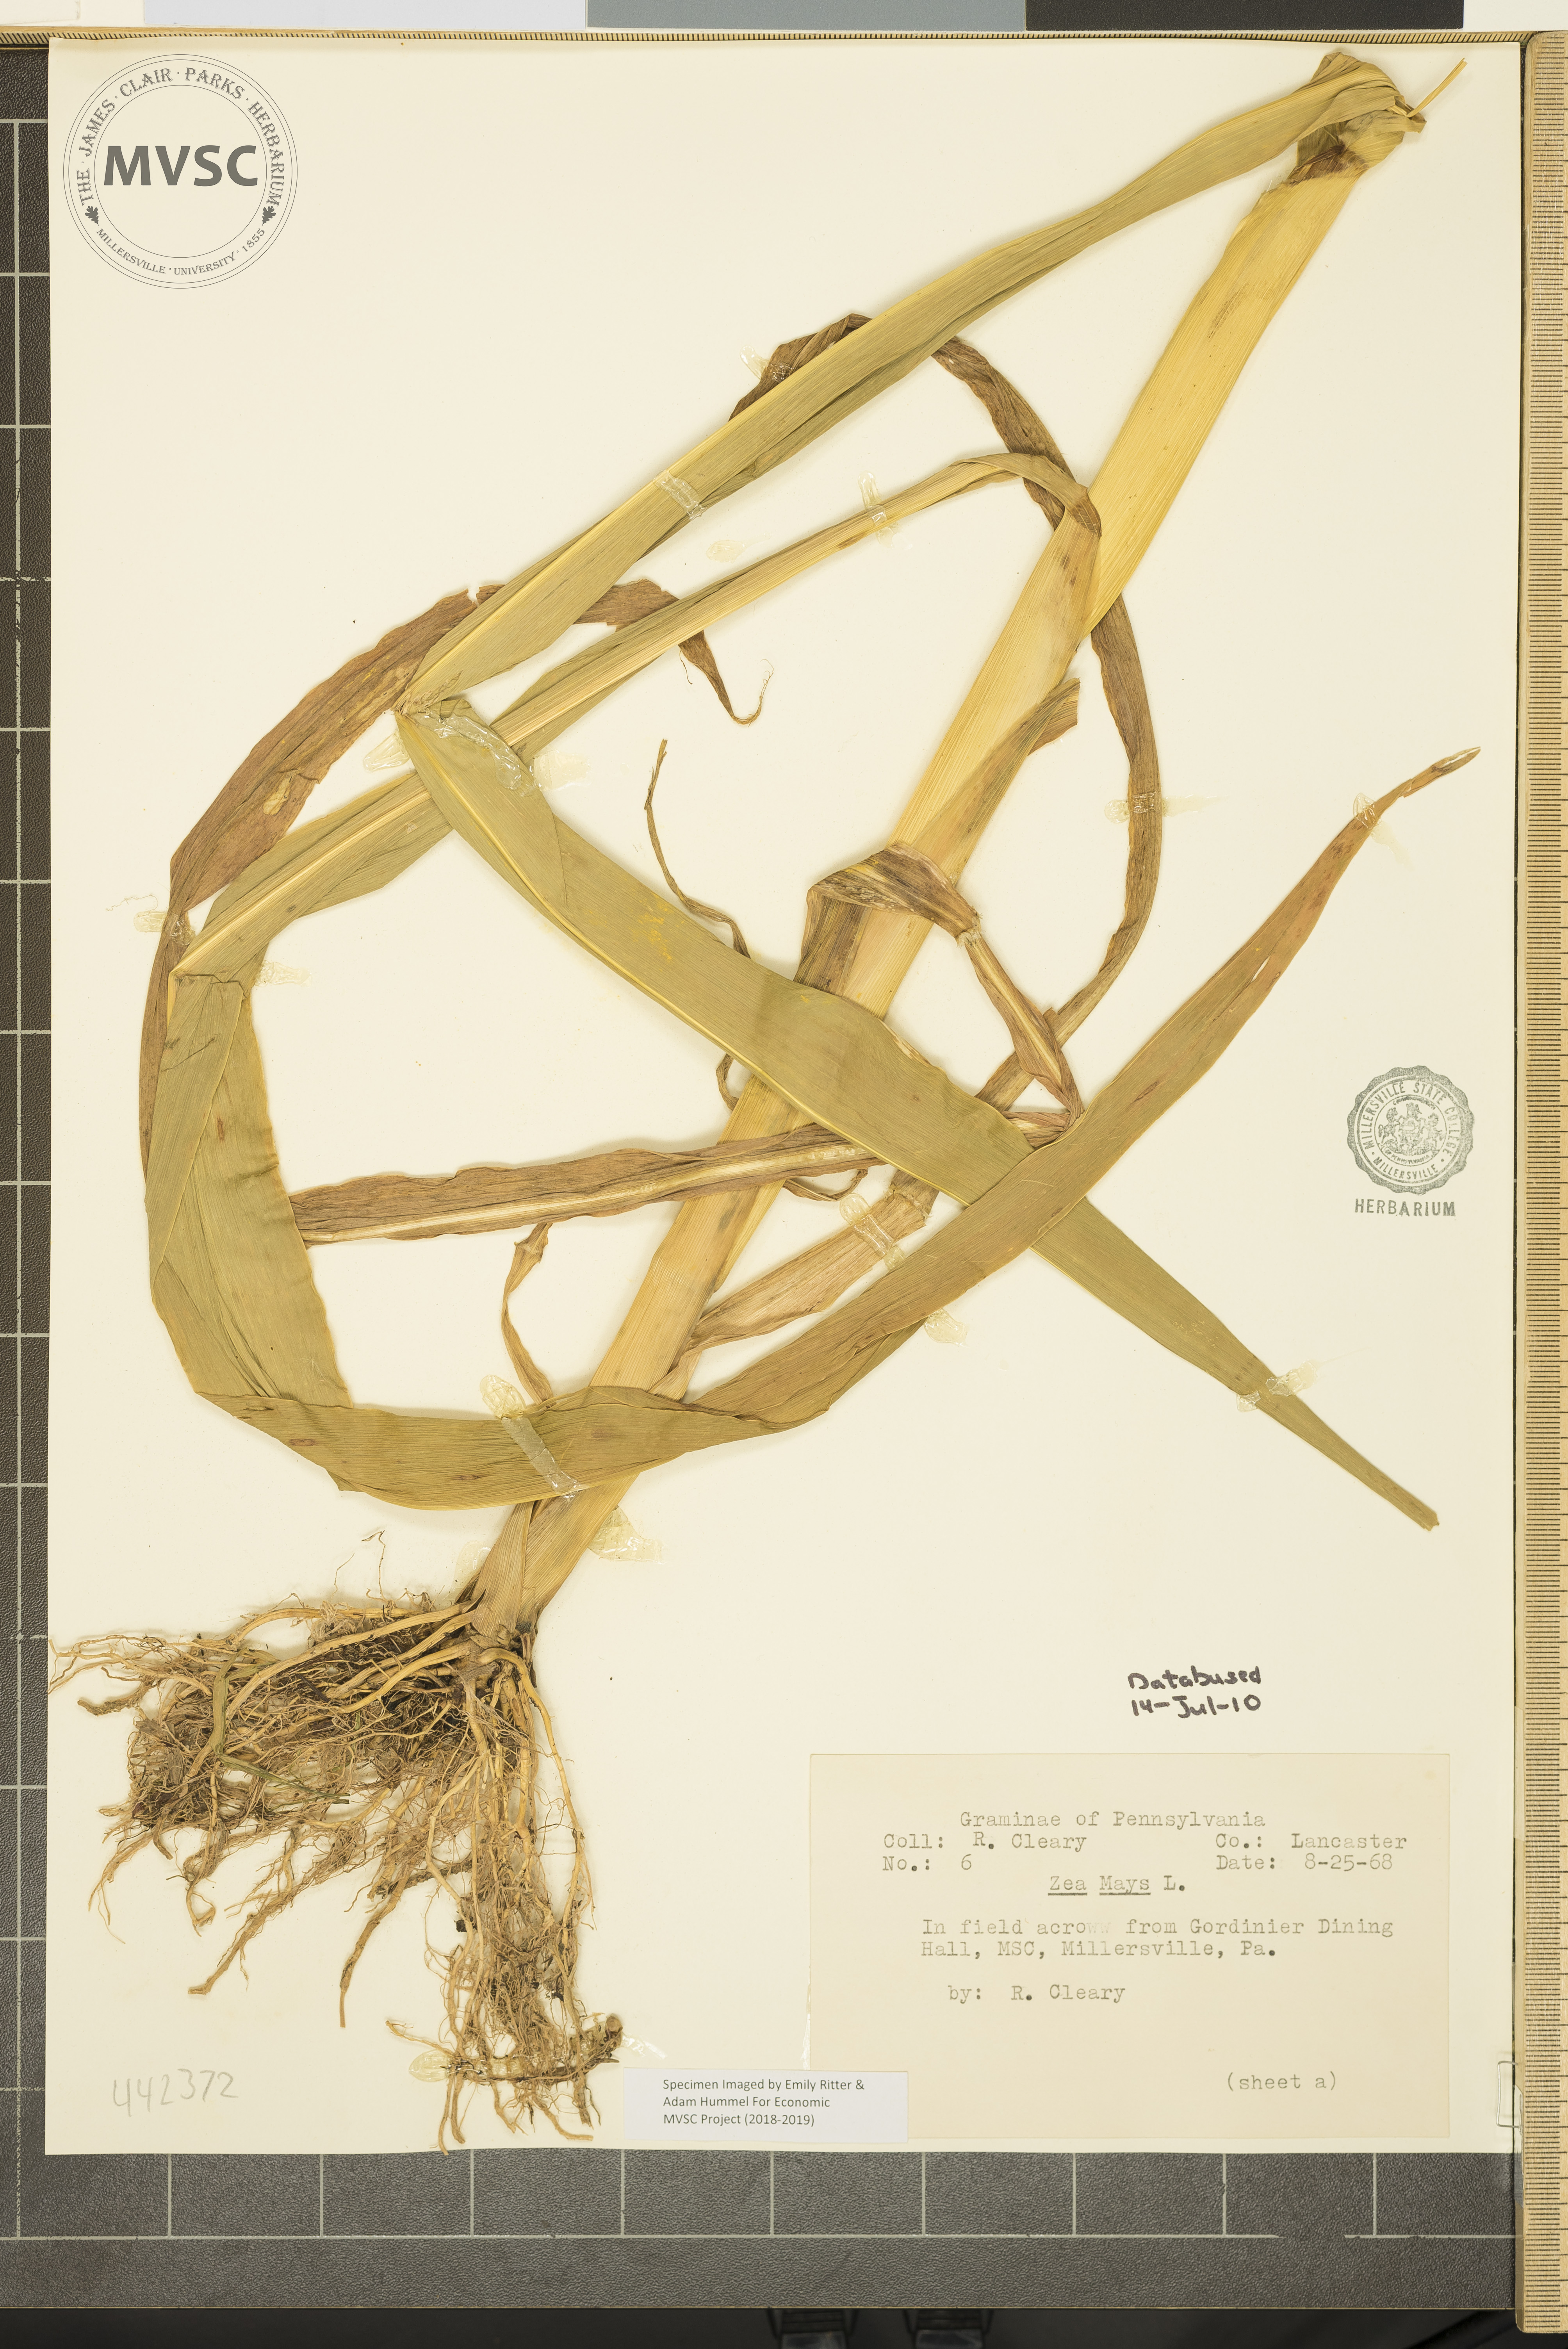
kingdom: Plantae
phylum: Tracheophyta
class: Liliopsida
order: Poales
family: Poaceae
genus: Zea
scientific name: Zea mays
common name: Maize
